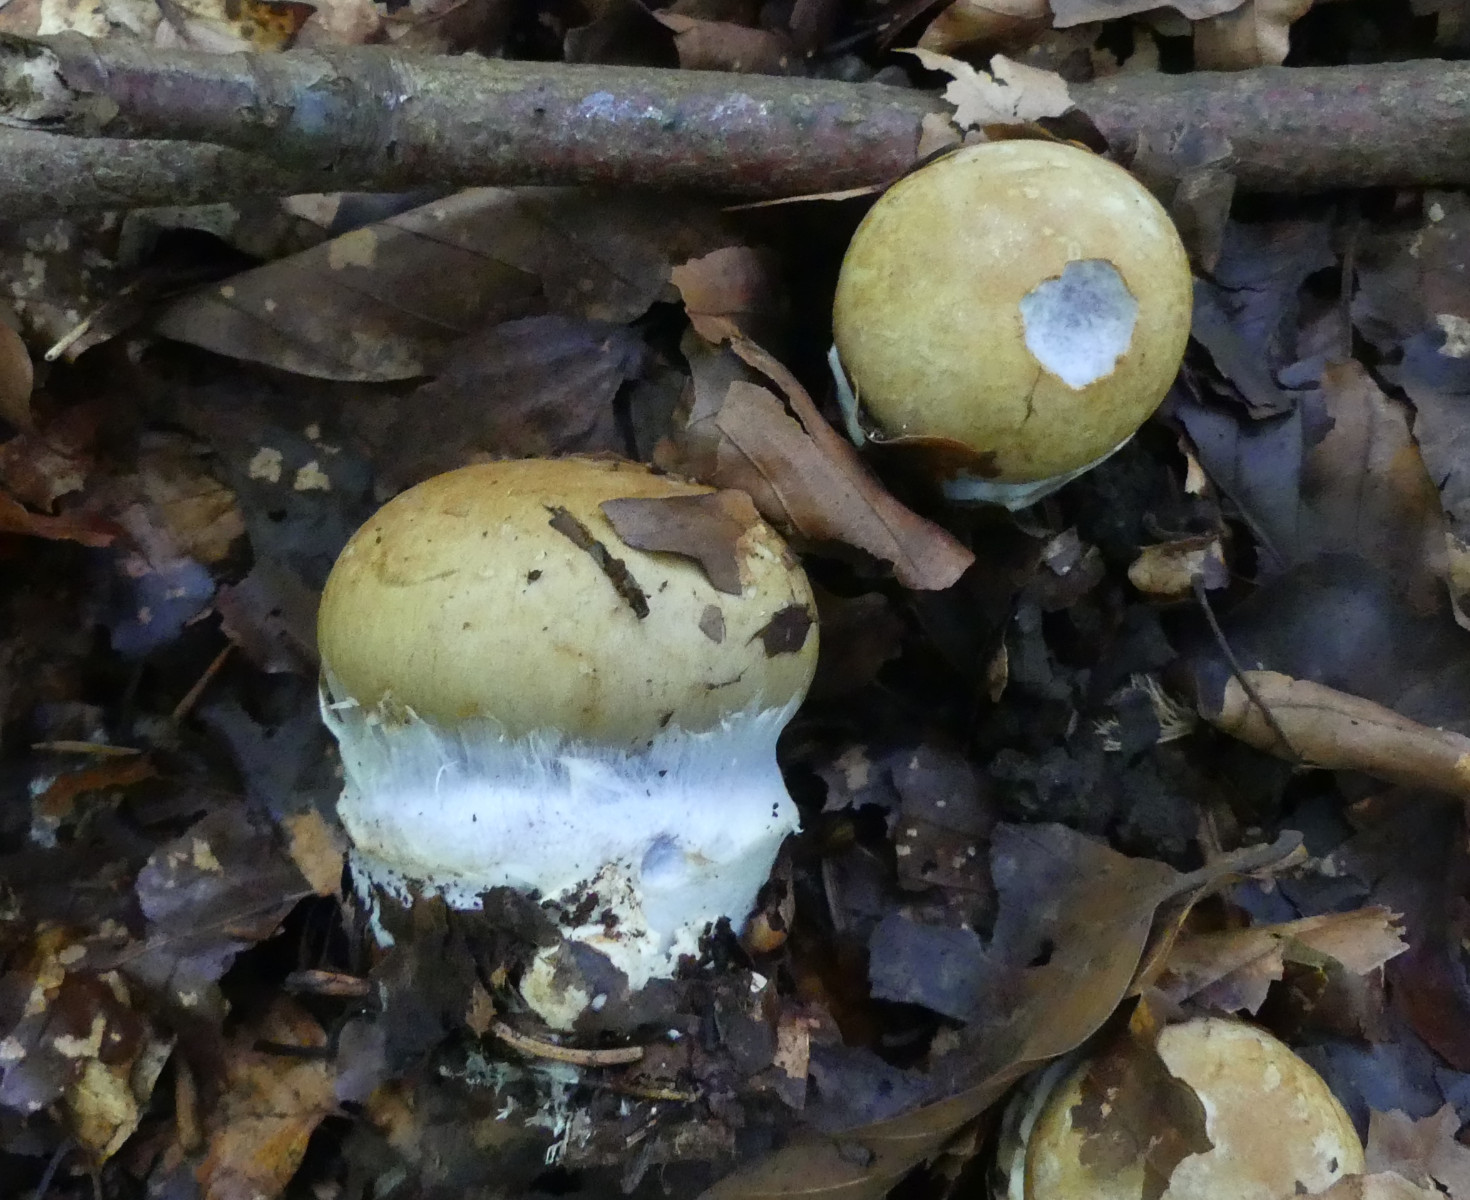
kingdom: Fungi
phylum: Basidiomycota
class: Agaricomycetes
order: Agaricales
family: Cortinariaceae
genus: Cortinarius
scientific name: Cortinarius anserinus
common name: bøge-slørhat
